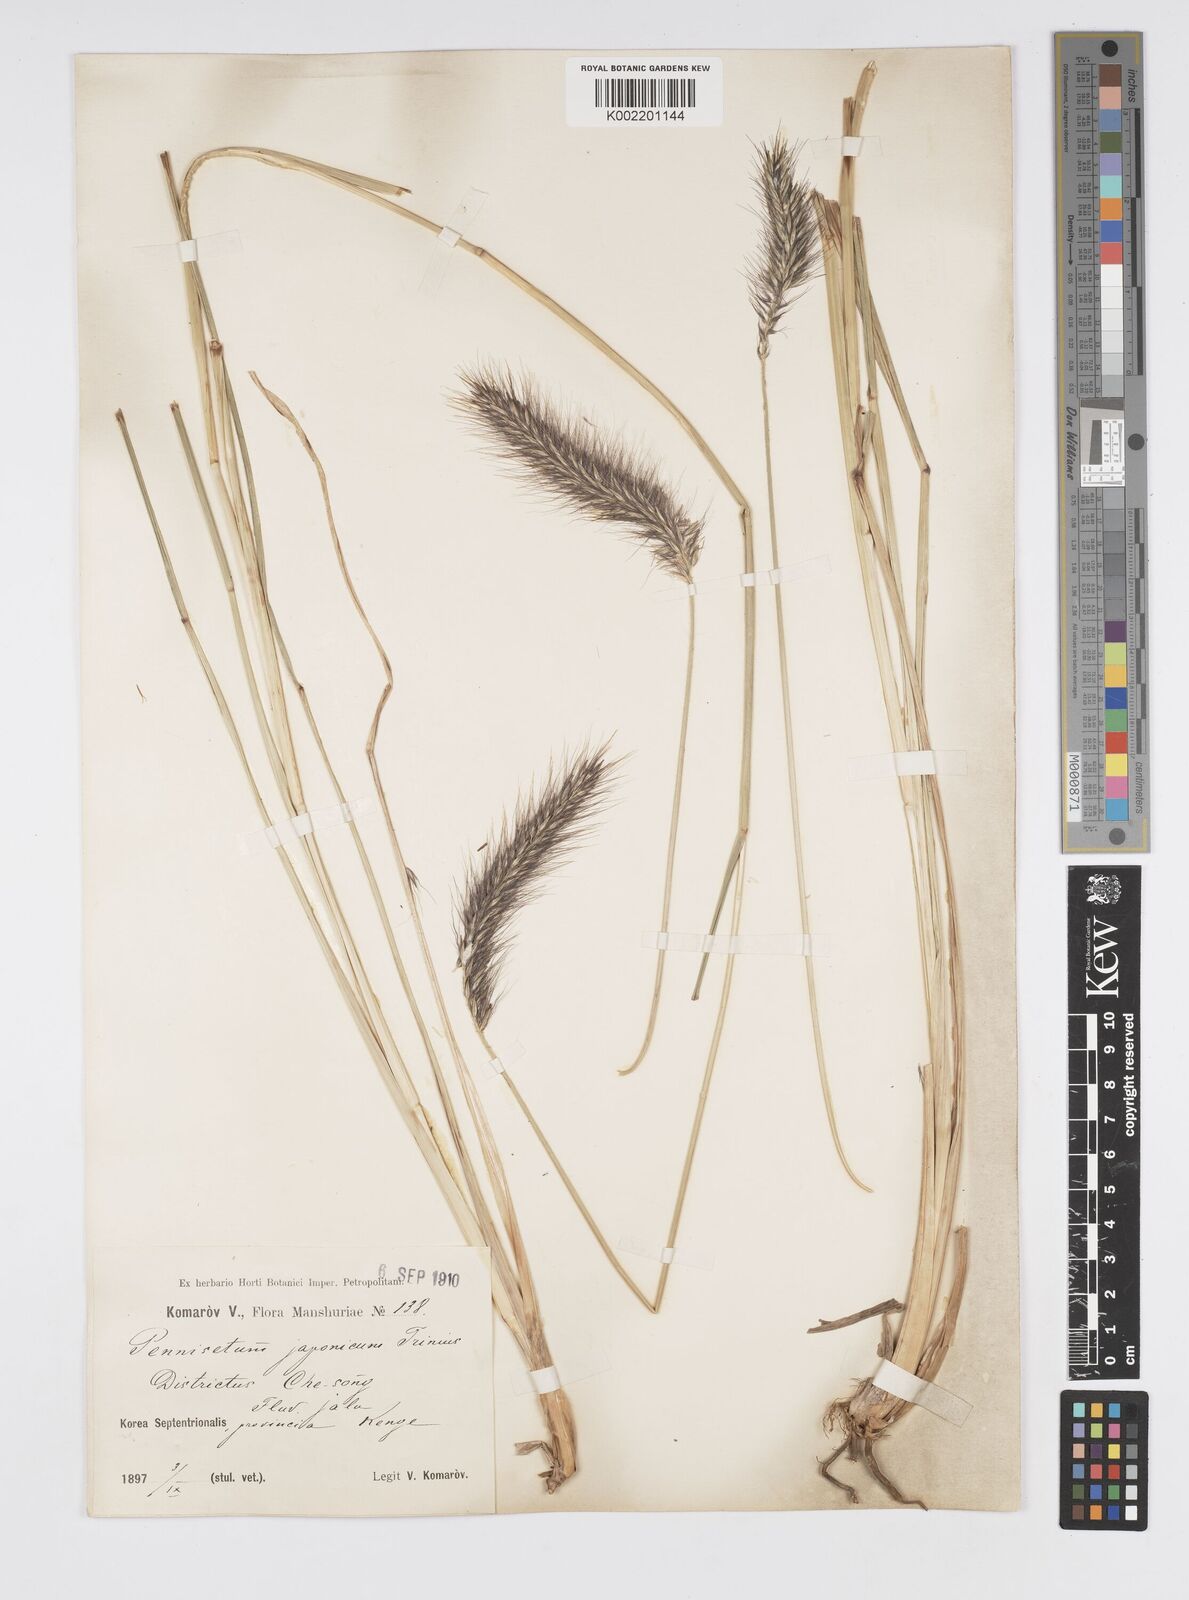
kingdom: Plantae
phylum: Tracheophyta
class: Liliopsida
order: Poales
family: Poaceae
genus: Cenchrus
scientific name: Cenchrus alopecuroides
